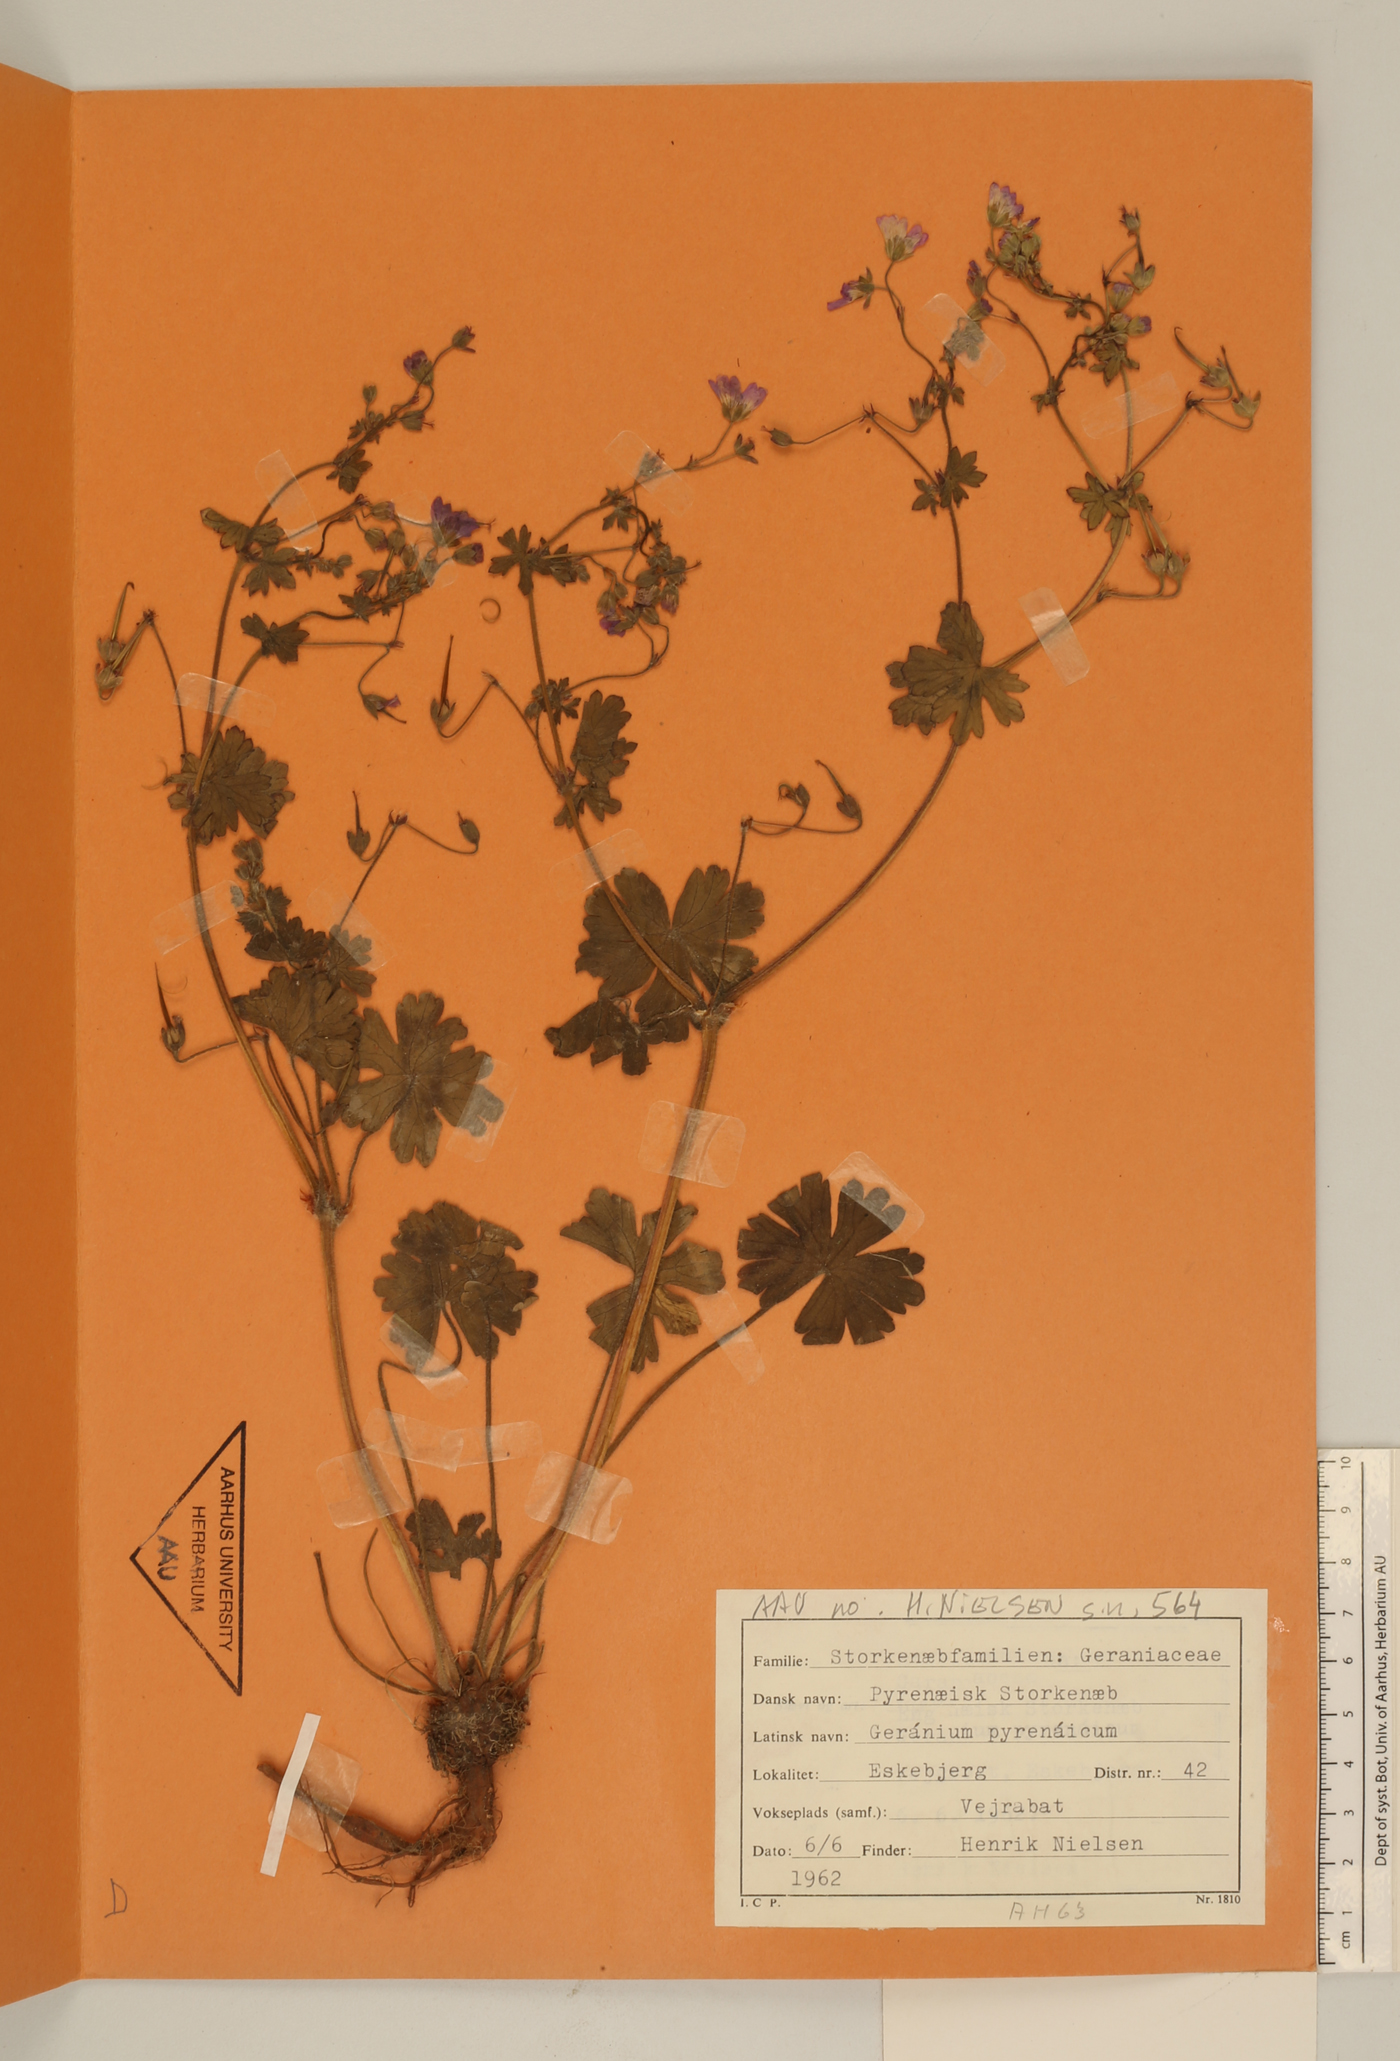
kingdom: Plantae
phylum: Tracheophyta
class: Magnoliopsida
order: Geraniales
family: Geraniaceae
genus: Geranium
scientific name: Geranium pyrenaicum
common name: Hedgerow crane's-bill
